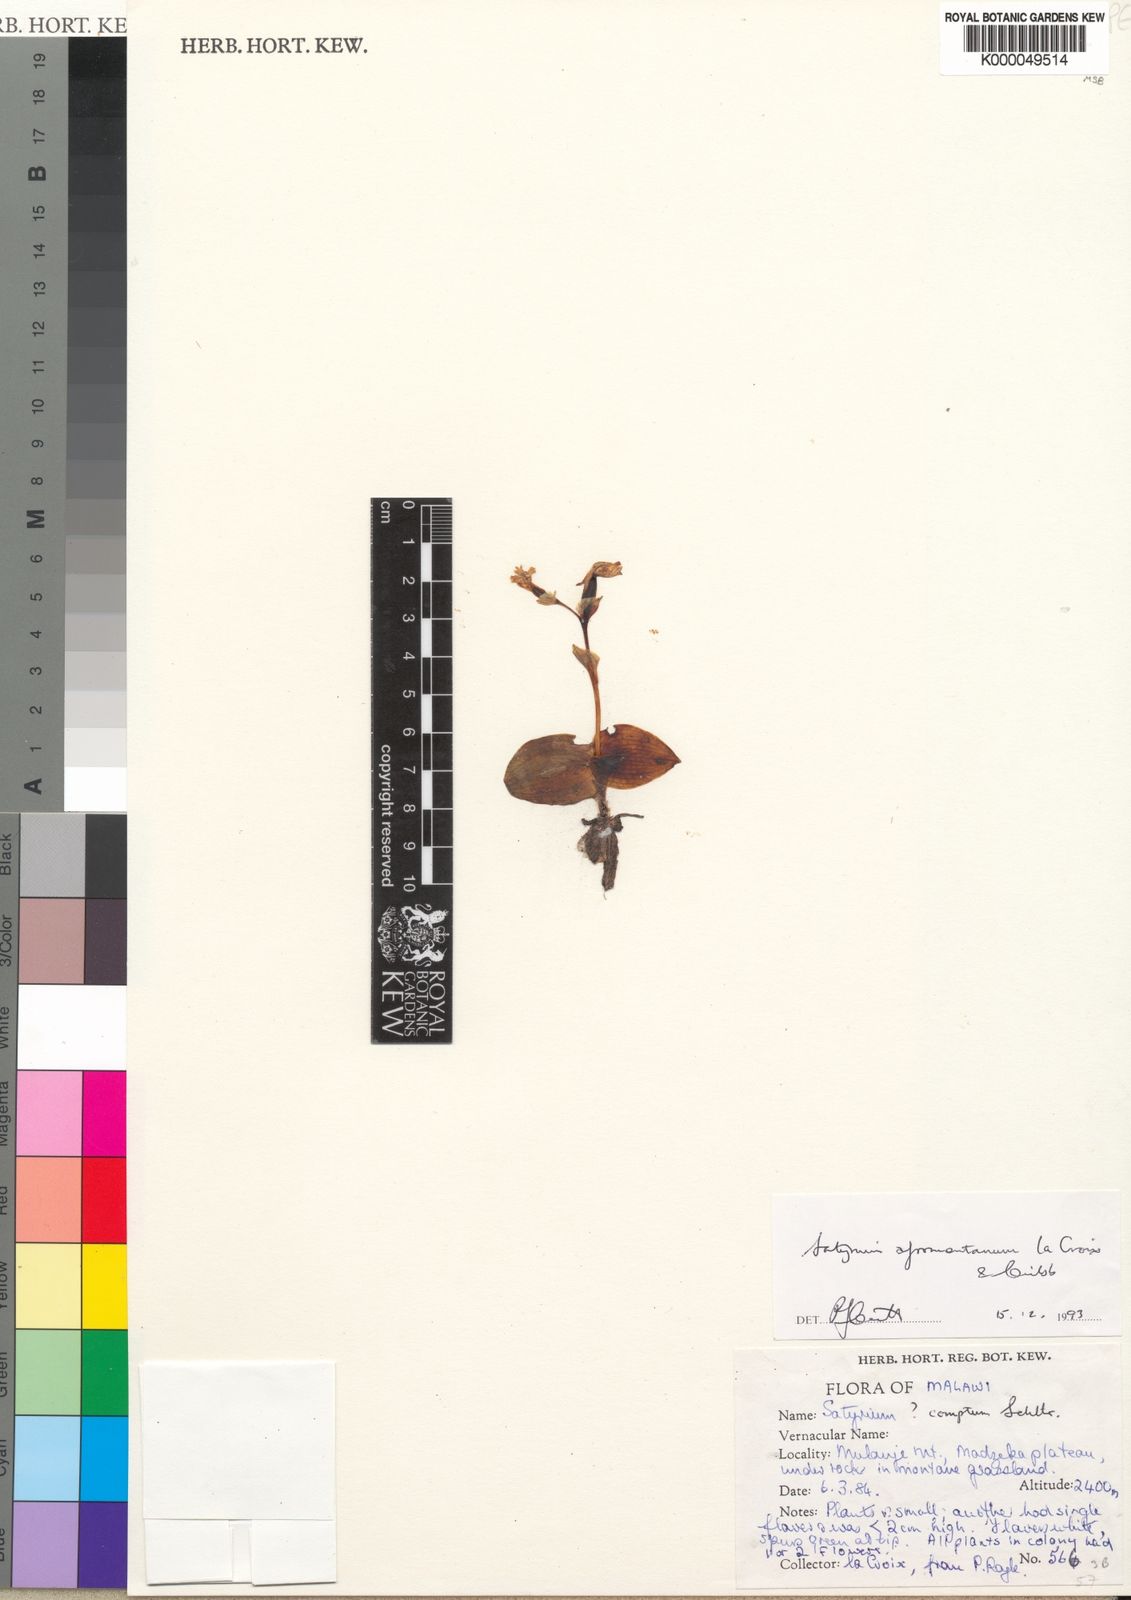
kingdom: Plantae
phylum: Tracheophyta
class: Liliopsida
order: Asparagales
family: Orchidaceae
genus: Satyrium
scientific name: Satyrium
